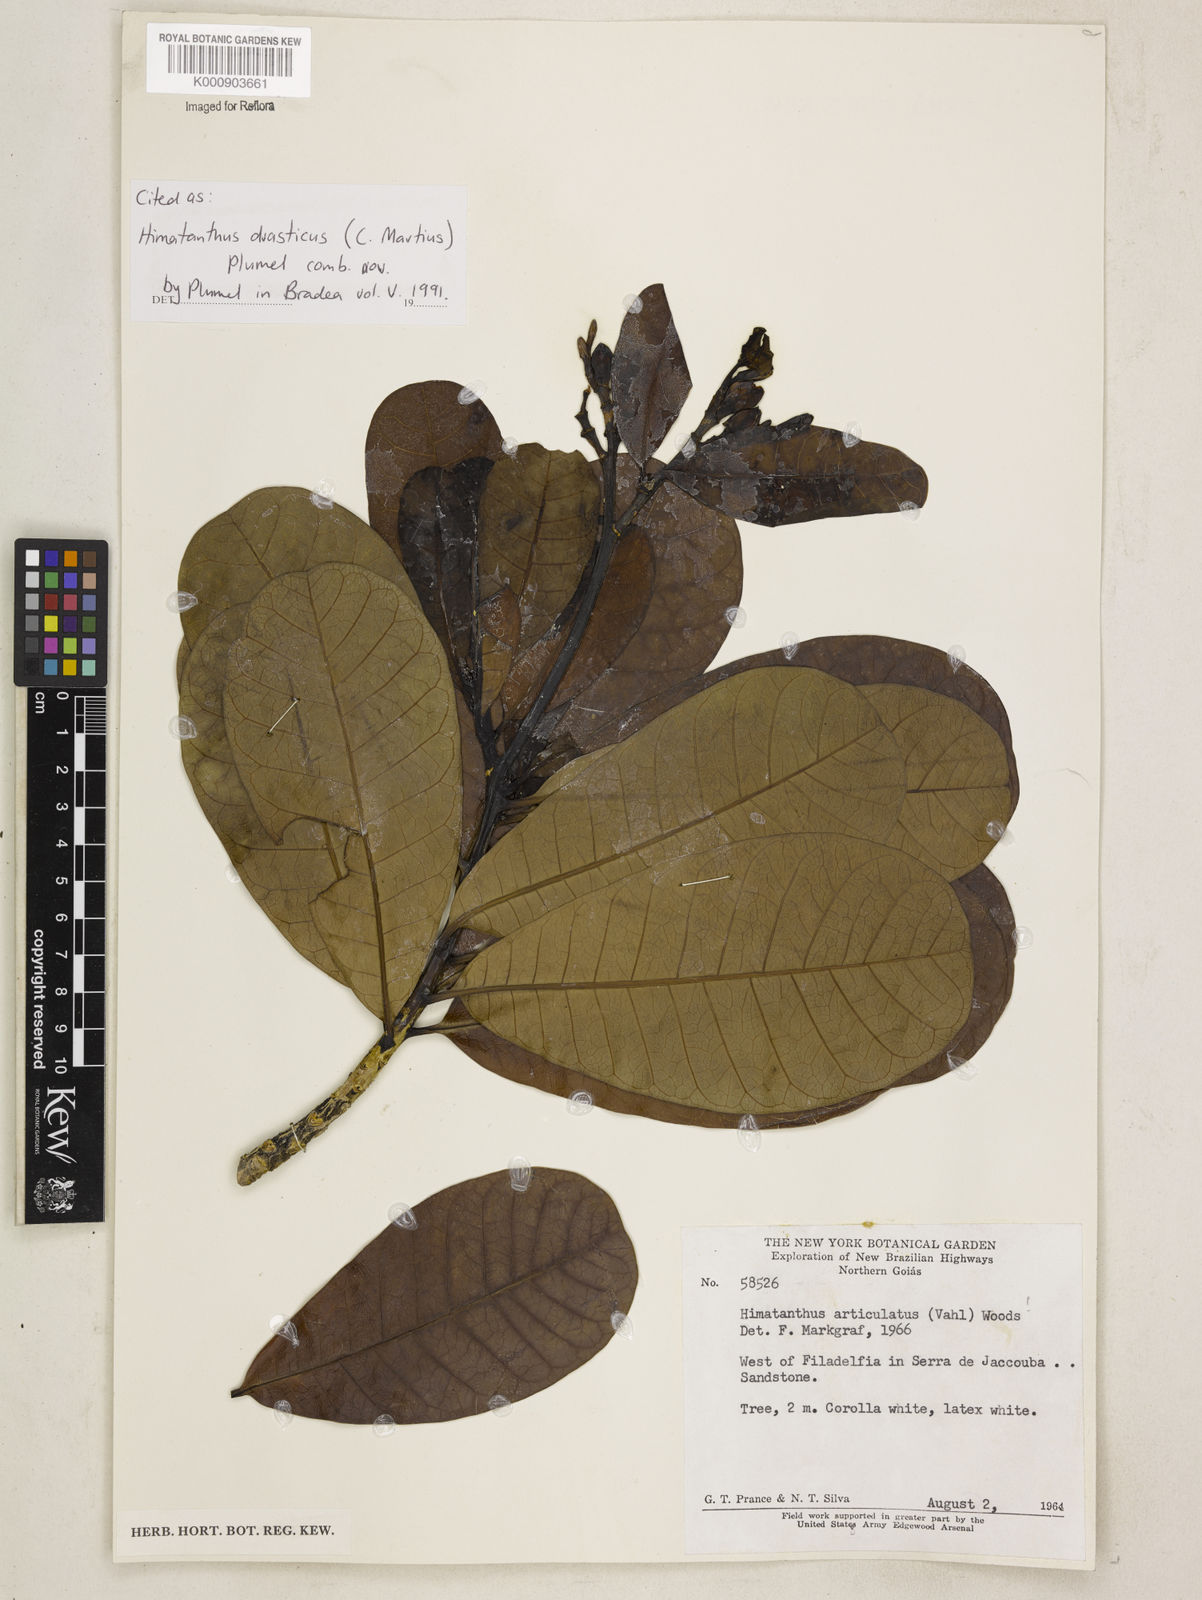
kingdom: Plantae
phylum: Tracheophyta
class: Magnoliopsida
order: Gentianales
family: Apocynaceae
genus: Himatanthus
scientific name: Himatanthus drasticus
